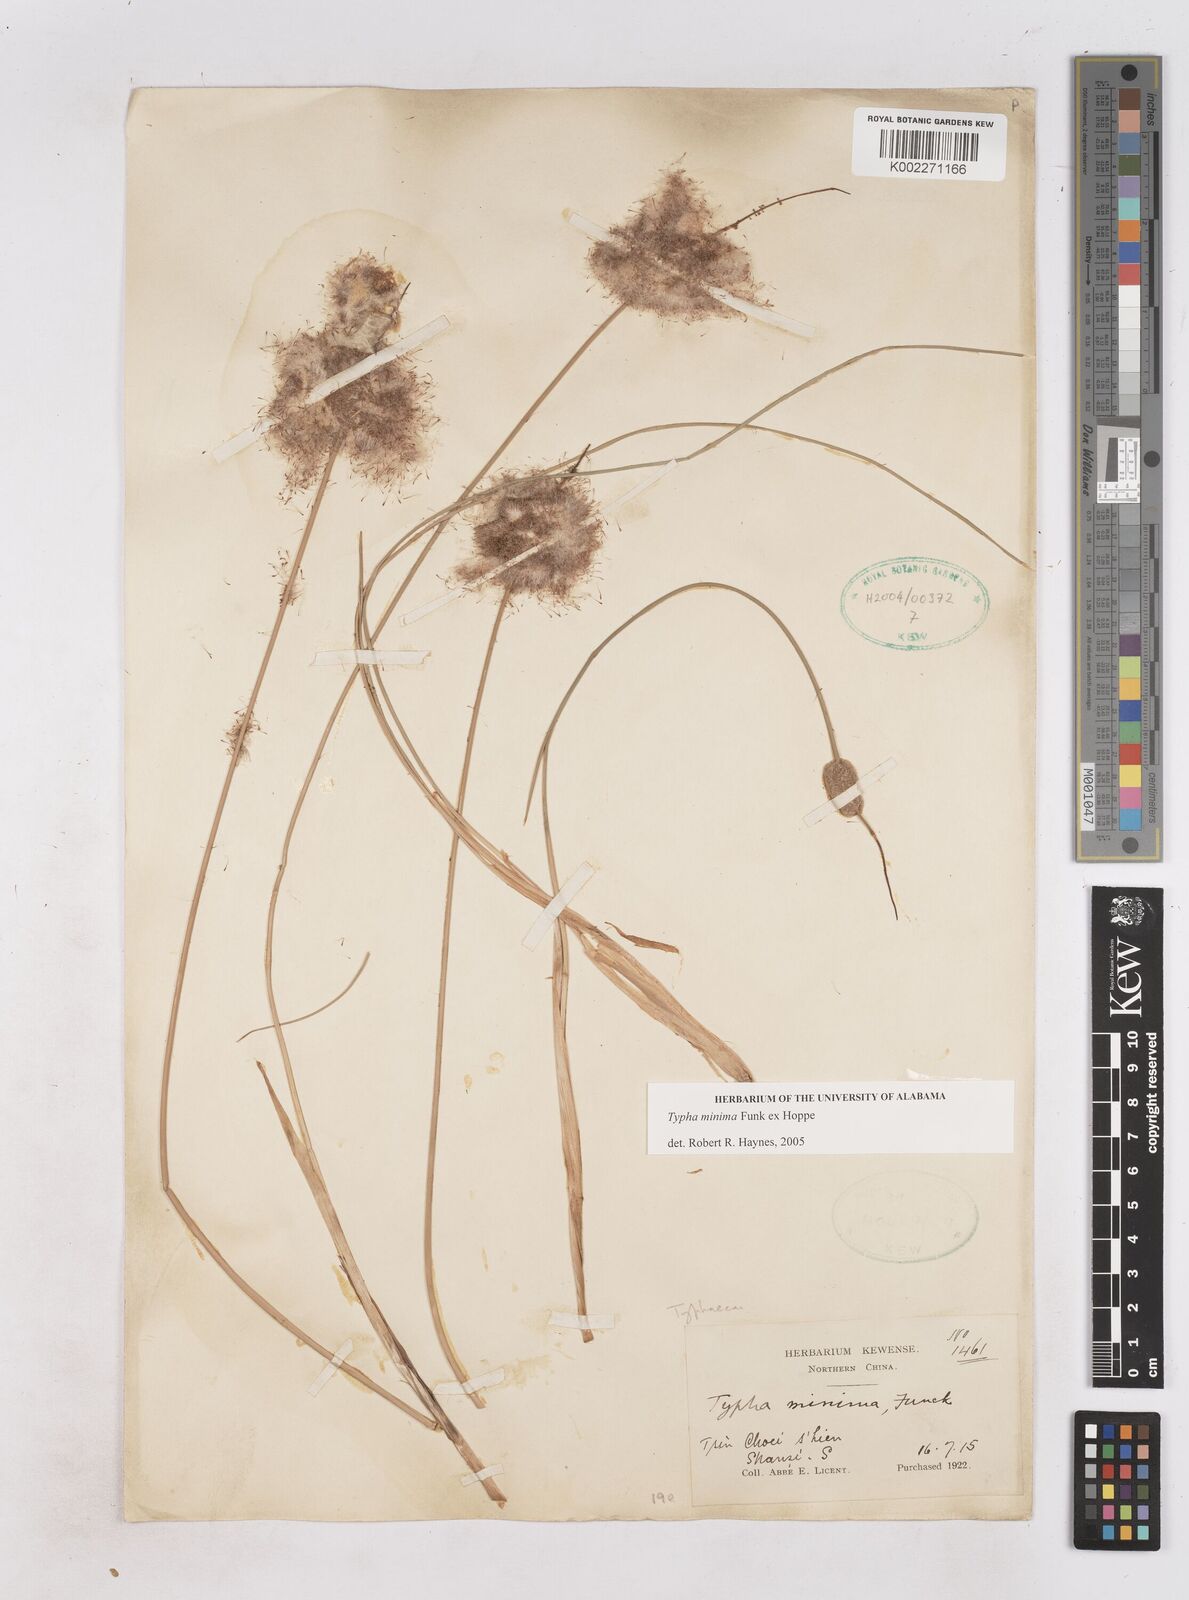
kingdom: Plantae
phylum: Tracheophyta
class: Liliopsida
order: Poales
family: Typhaceae
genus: Typha
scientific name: Typha
